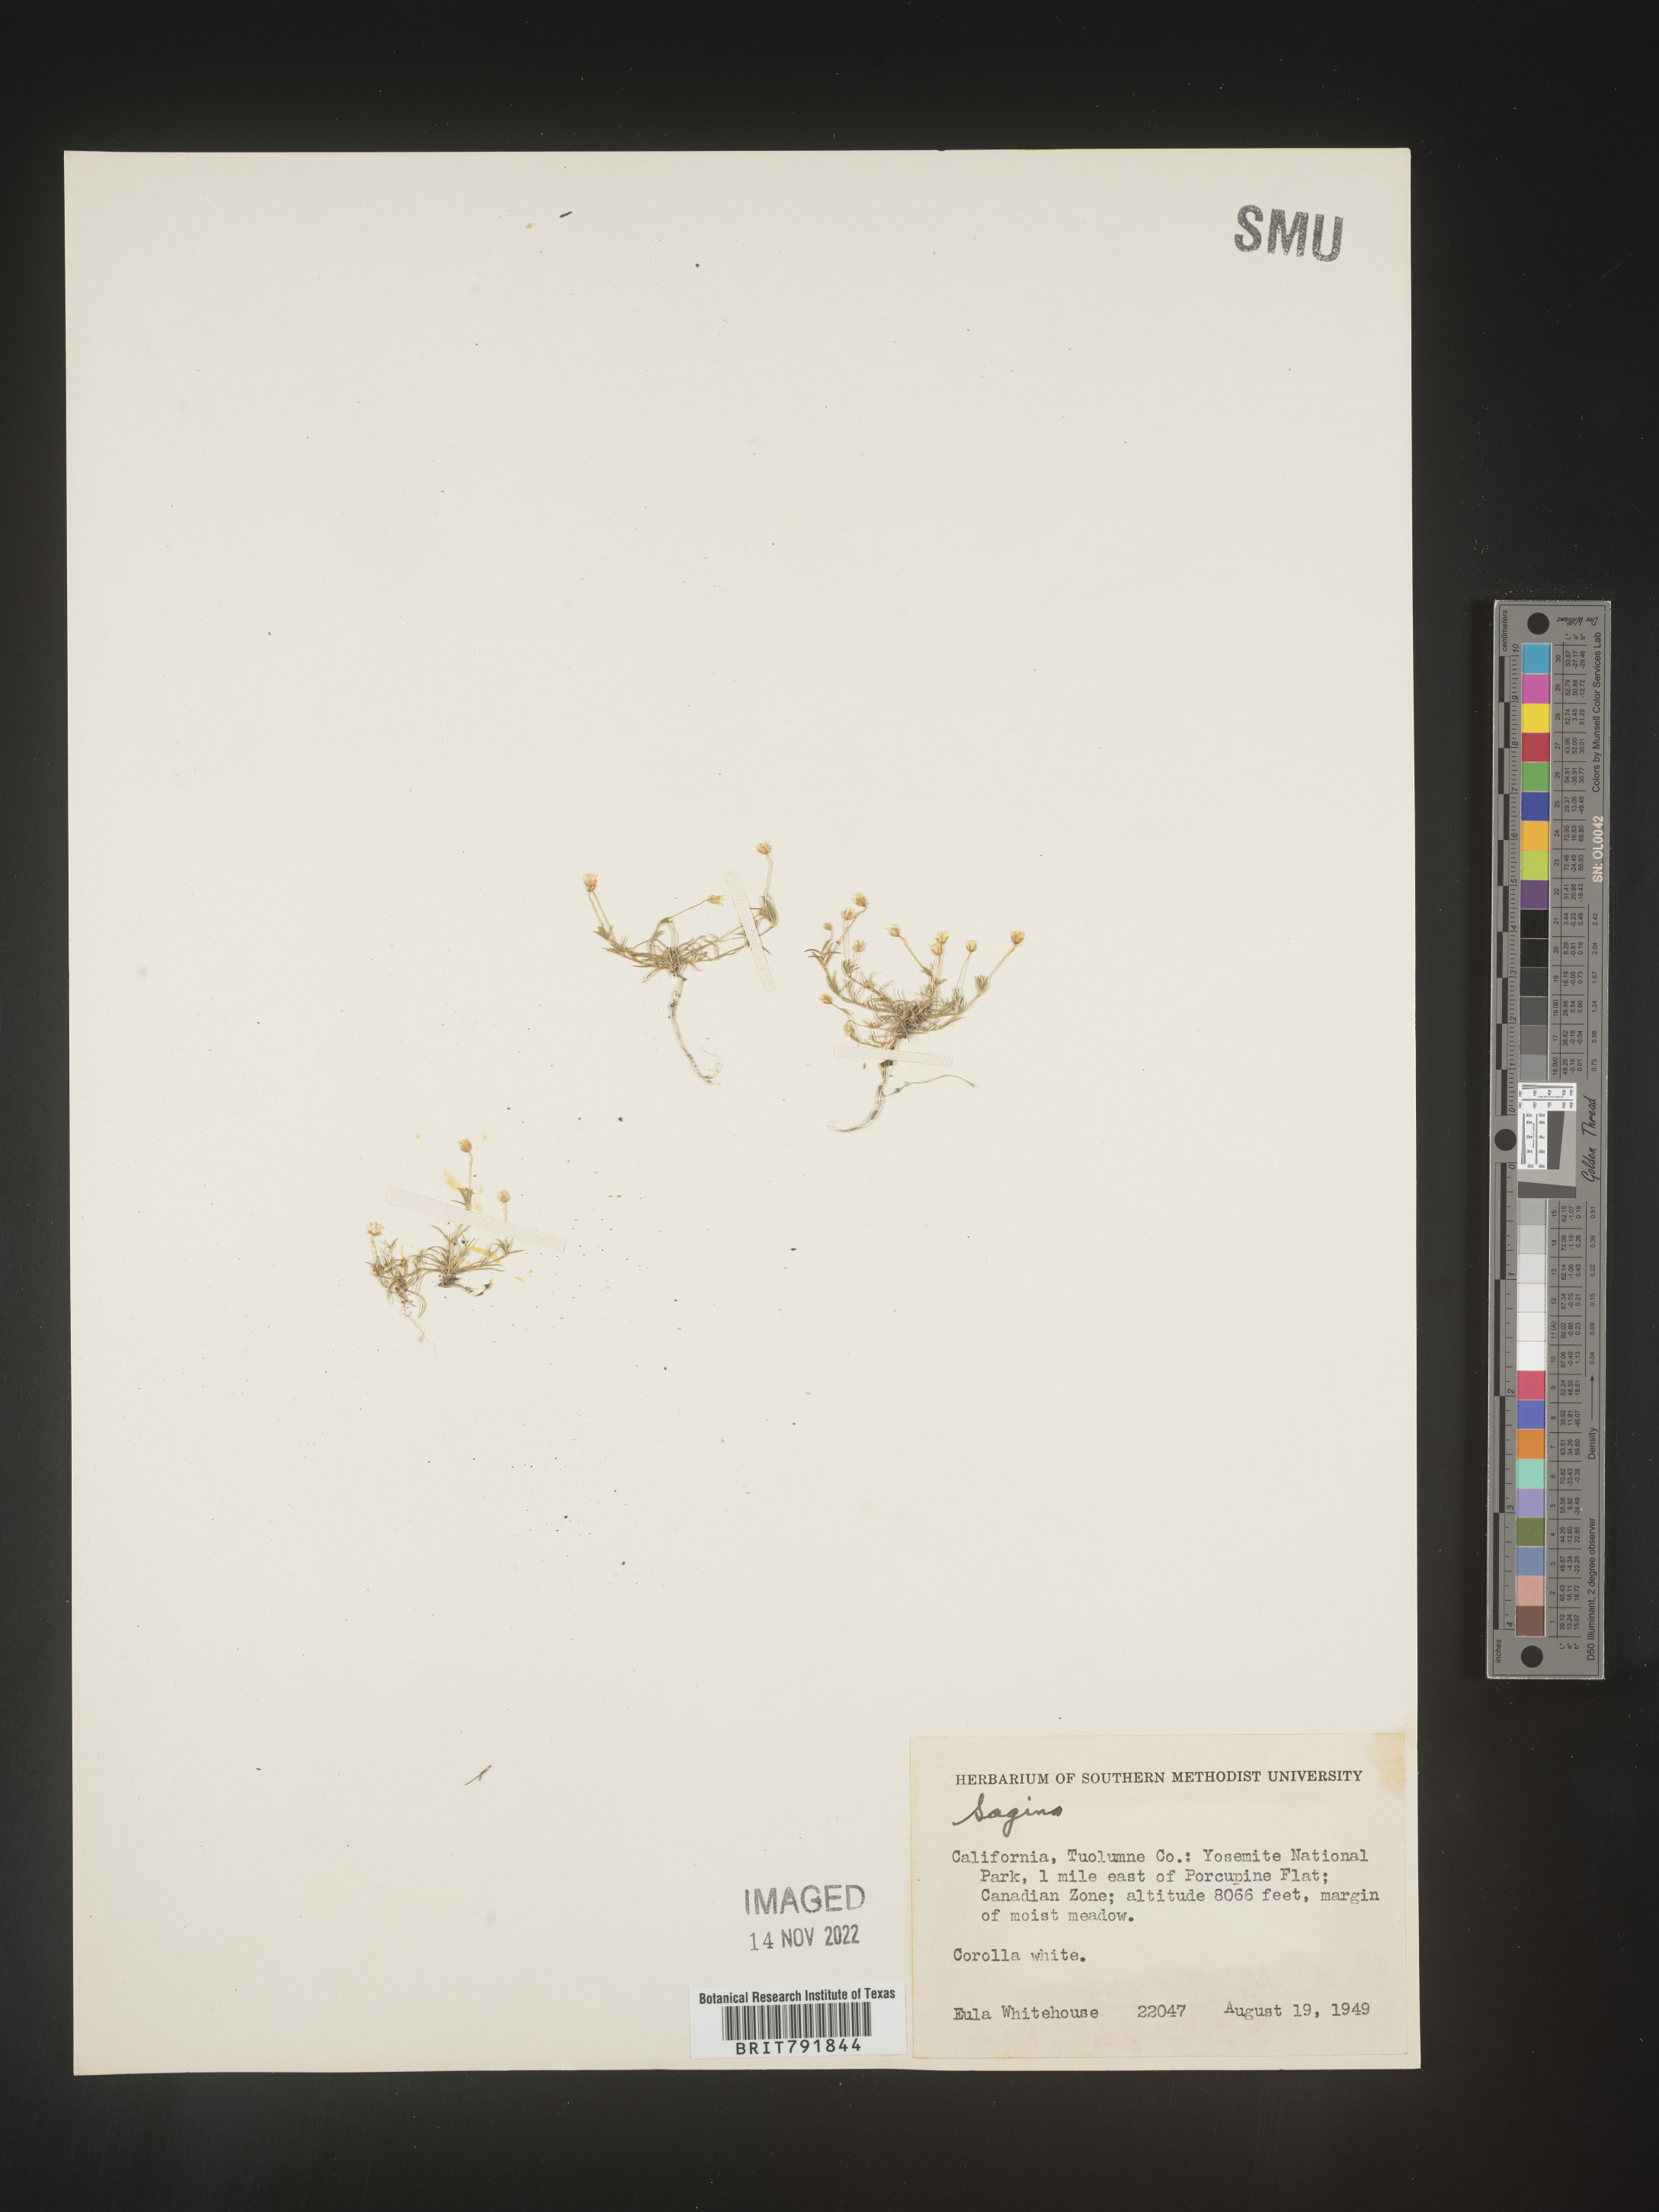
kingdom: Plantae
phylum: Tracheophyta
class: Magnoliopsida
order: Caryophyllales
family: Caryophyllaceae
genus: Sagina
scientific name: Sagina
